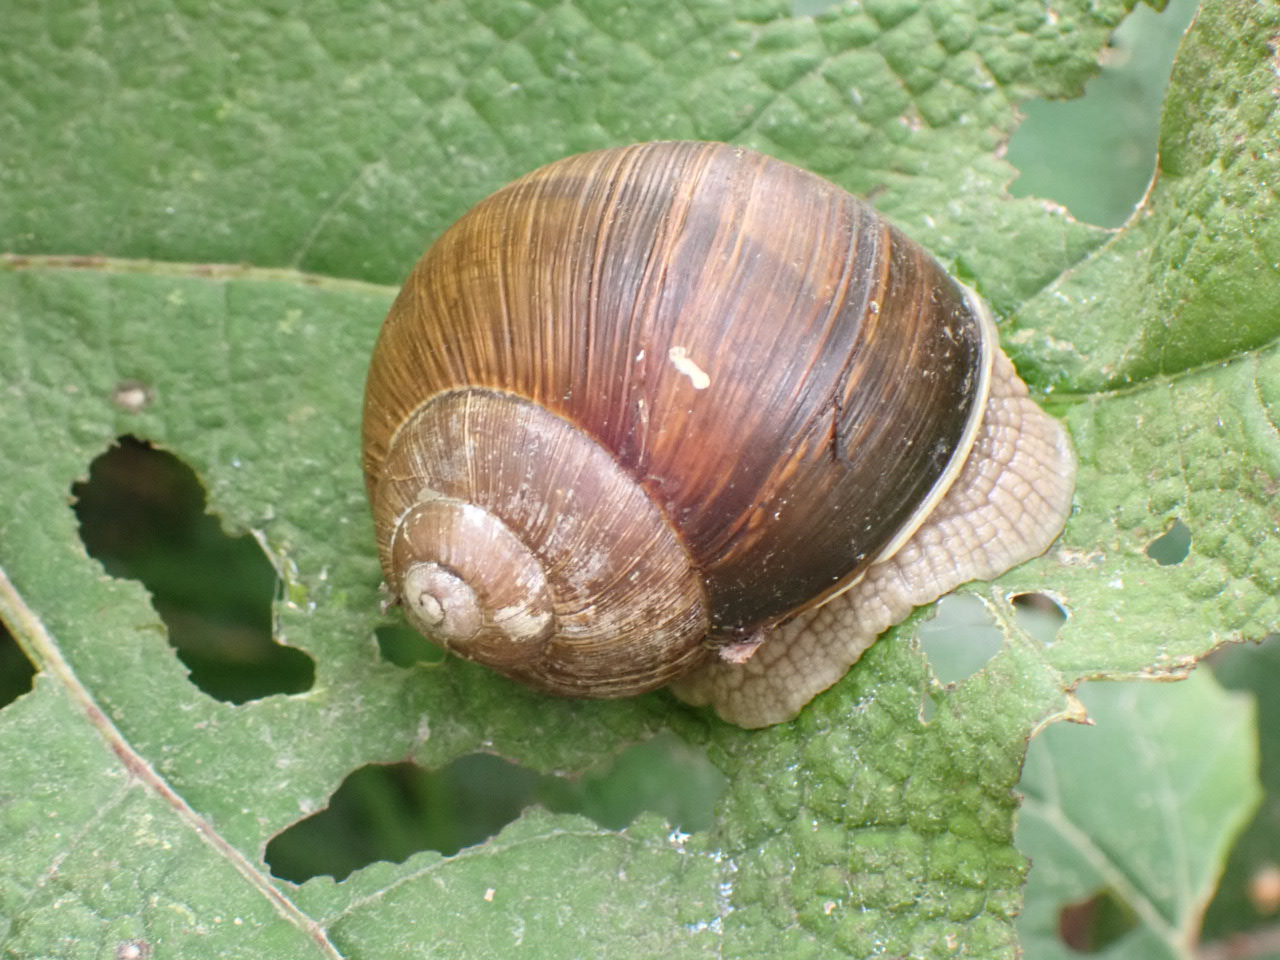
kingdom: Animalia
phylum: Mollusca
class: Gastropoda
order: Stylommatophora
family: Helicidae
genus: Helix
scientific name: Helix pomatia
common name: Vinbjergsnegl
